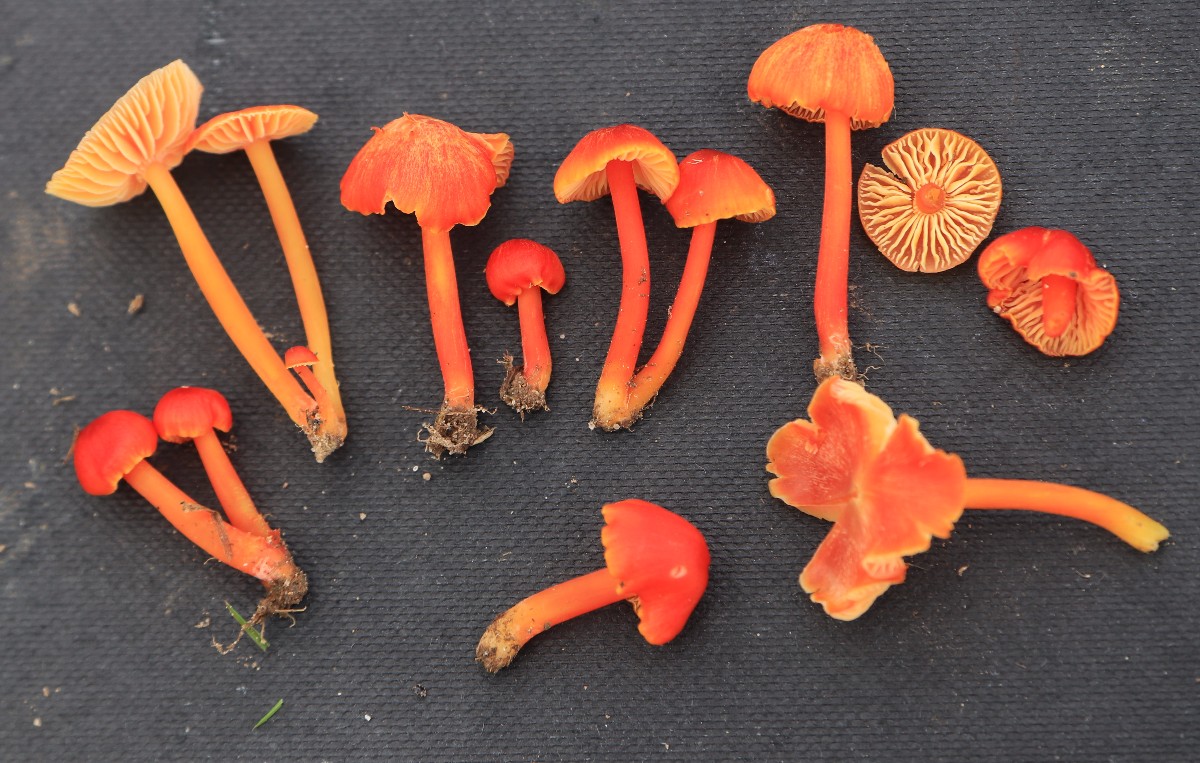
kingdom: Fungi
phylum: Basidiomycota
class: Agaricomycetes
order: Agaricales
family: Hygrophoraceae
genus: Hygrocybe
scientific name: Hygrocybe subpapillata
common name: papil-vokshat
